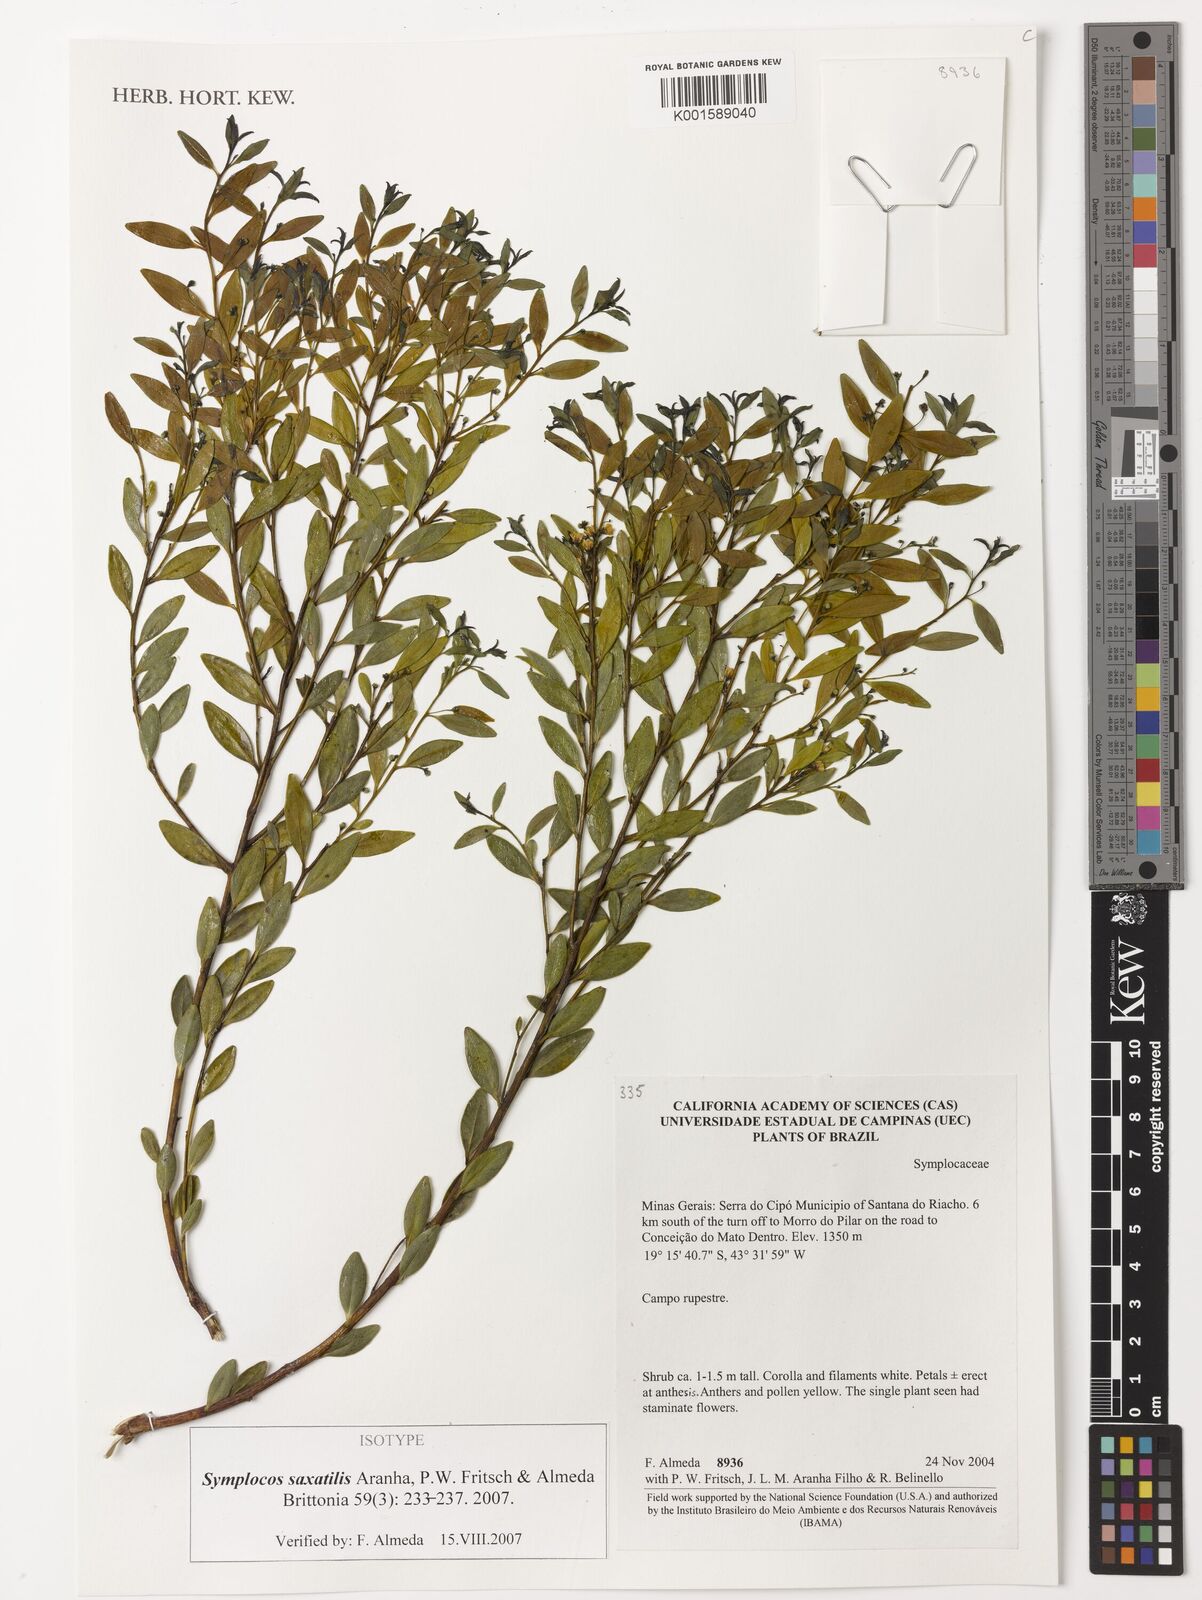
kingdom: Plantae
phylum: Tracheophyta
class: Magnoliopsida
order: Ericales
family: Symplocaceae
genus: Symplocos
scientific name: Symplocos saxatilis
